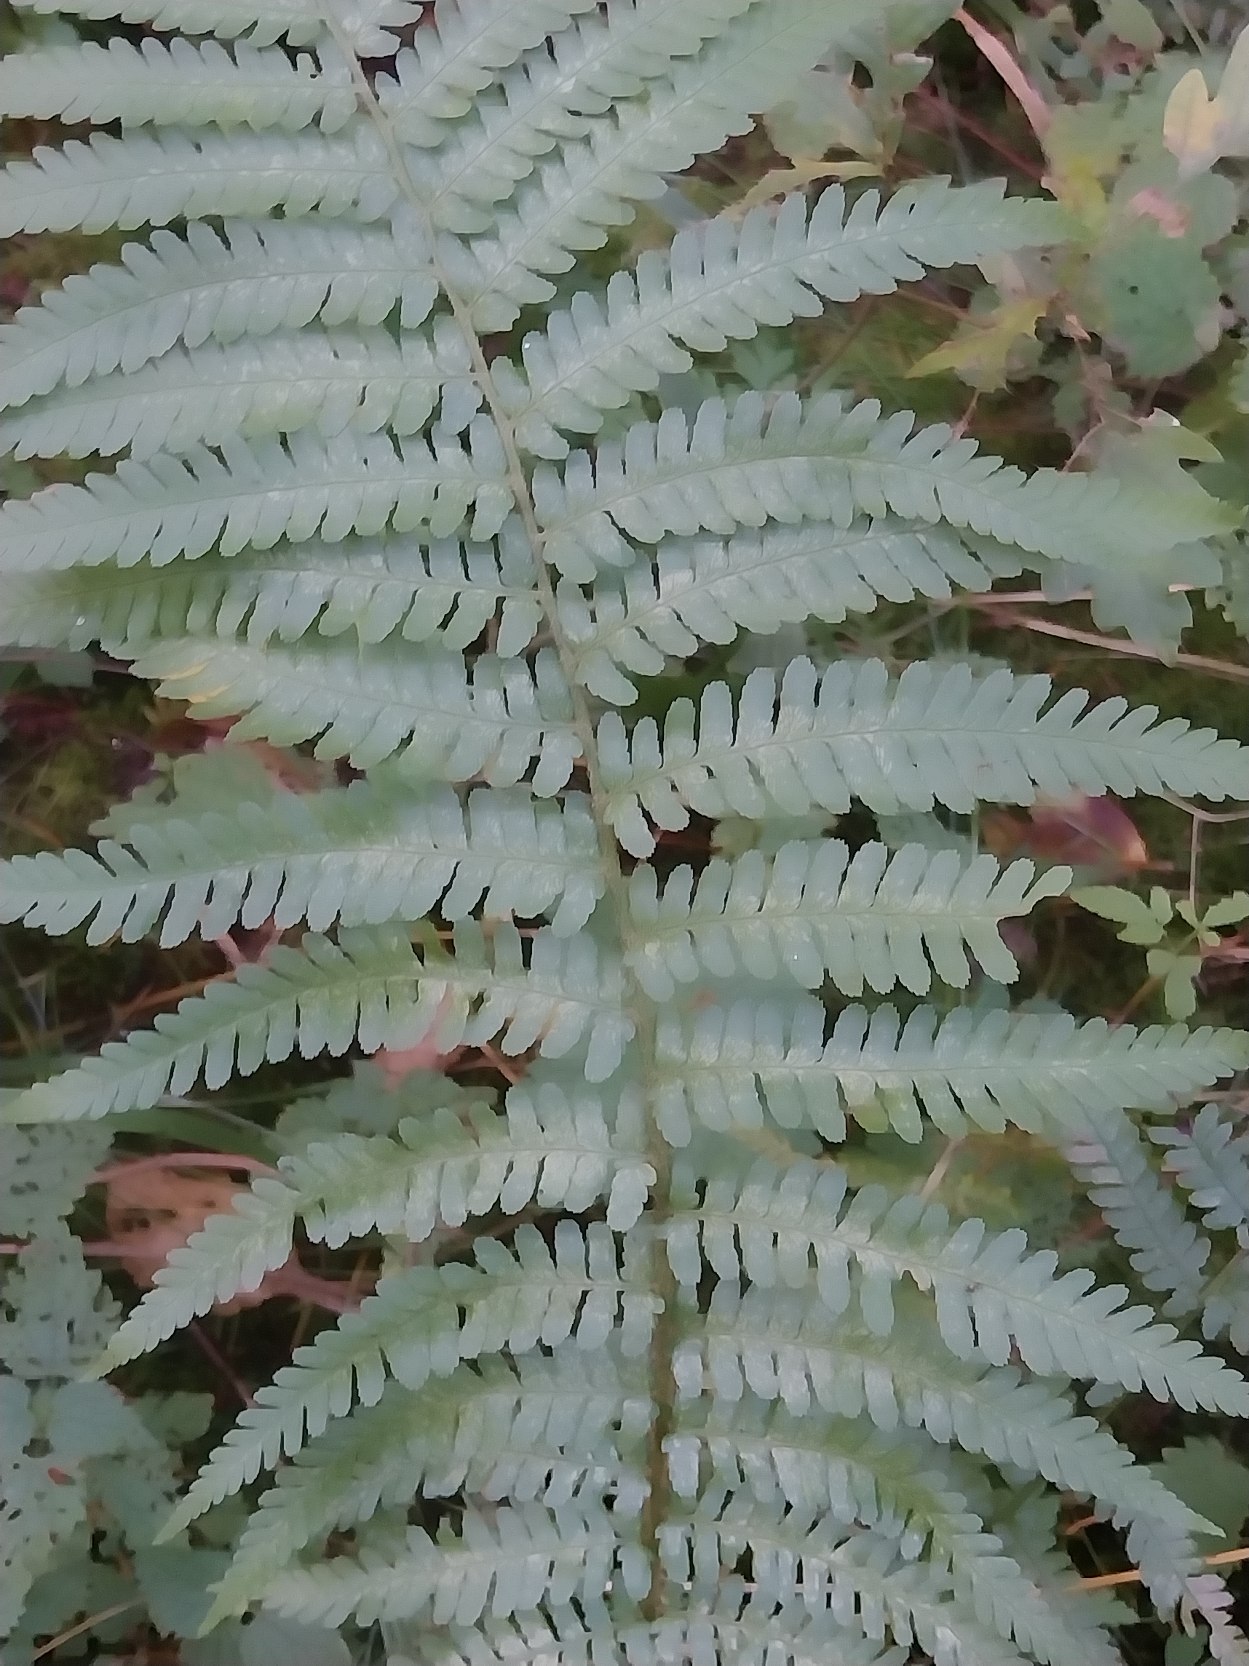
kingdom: Plantae
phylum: Tracheophyta
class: Polypodiopsida
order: Polypodiales
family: Dryopteridaceae
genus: Dryopteris
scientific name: Dryopteris filix-mas
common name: Almindelig mangeløv
